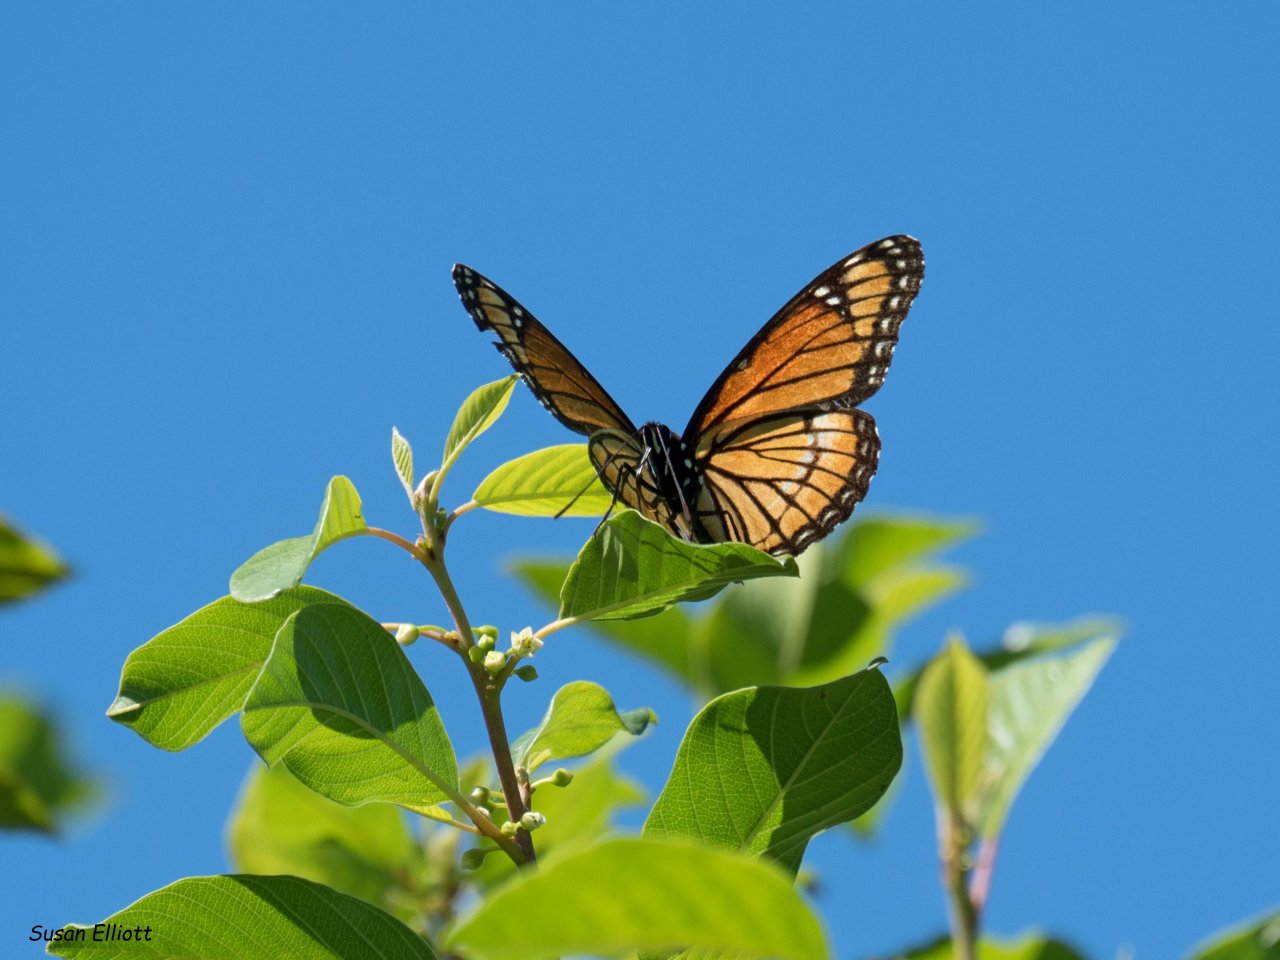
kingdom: Animalia
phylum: Arthropoda
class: Insecta
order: Lepidoptera
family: Nymphalidae
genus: Limenitis
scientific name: Limenitis archippus
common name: Viceroy
